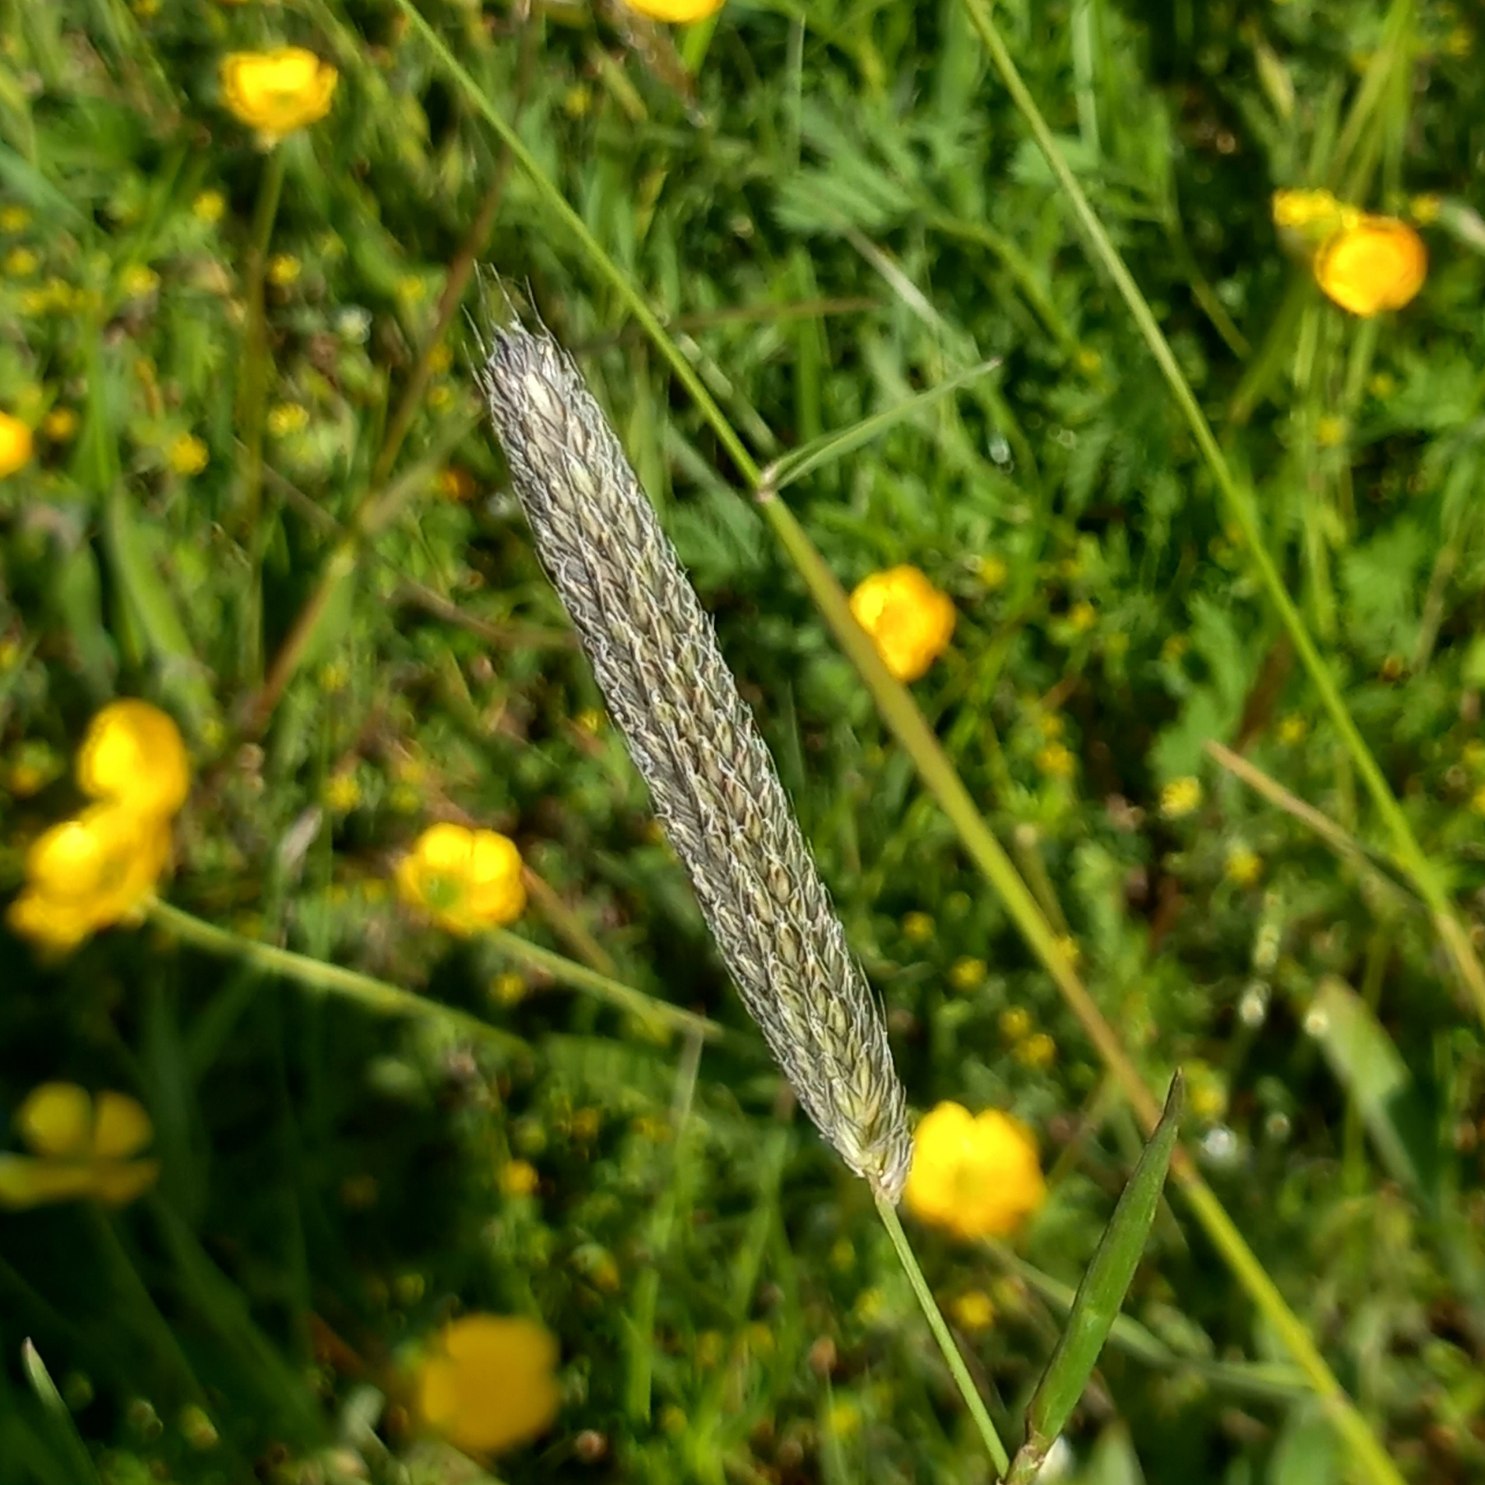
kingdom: Plantae
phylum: Tracheophyta
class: Liliopsida
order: Poales
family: Poaceae
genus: Alopecurus
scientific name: Alopecurus pratensis
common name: Eng-rævehale
